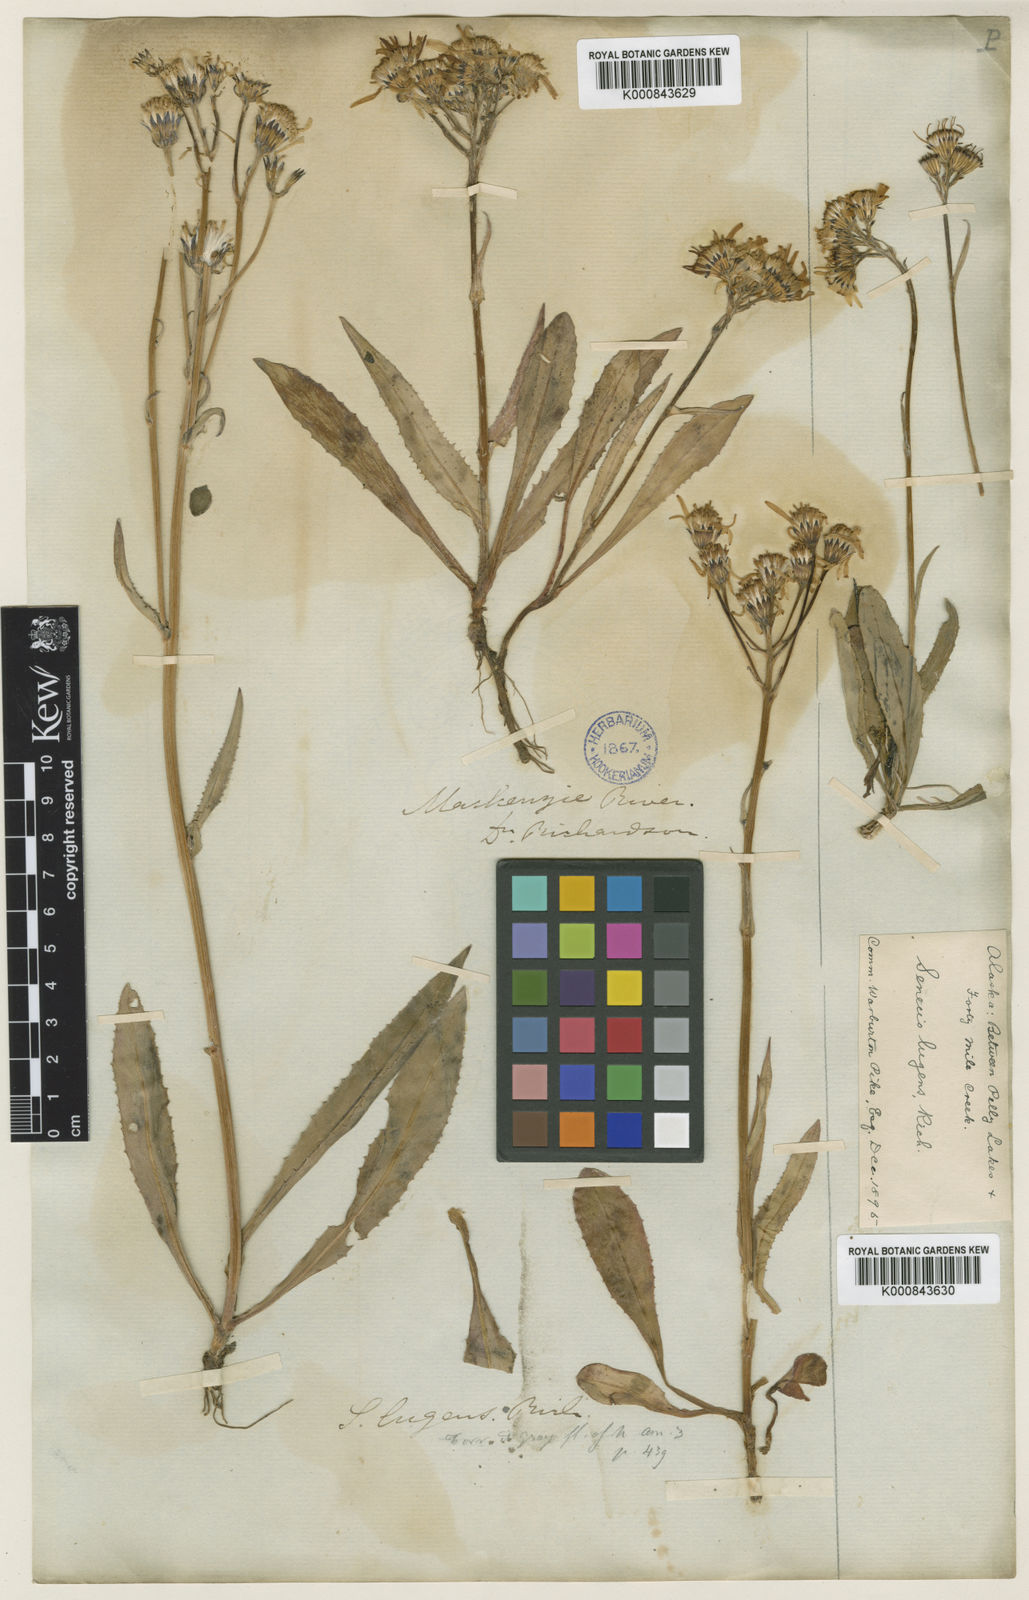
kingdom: Plantae
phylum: Tracheophyta
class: Magnoliopsida
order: Asterales
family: Asteraceae
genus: Senecio
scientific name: Senecio lugens
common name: Black-tip groundsel
